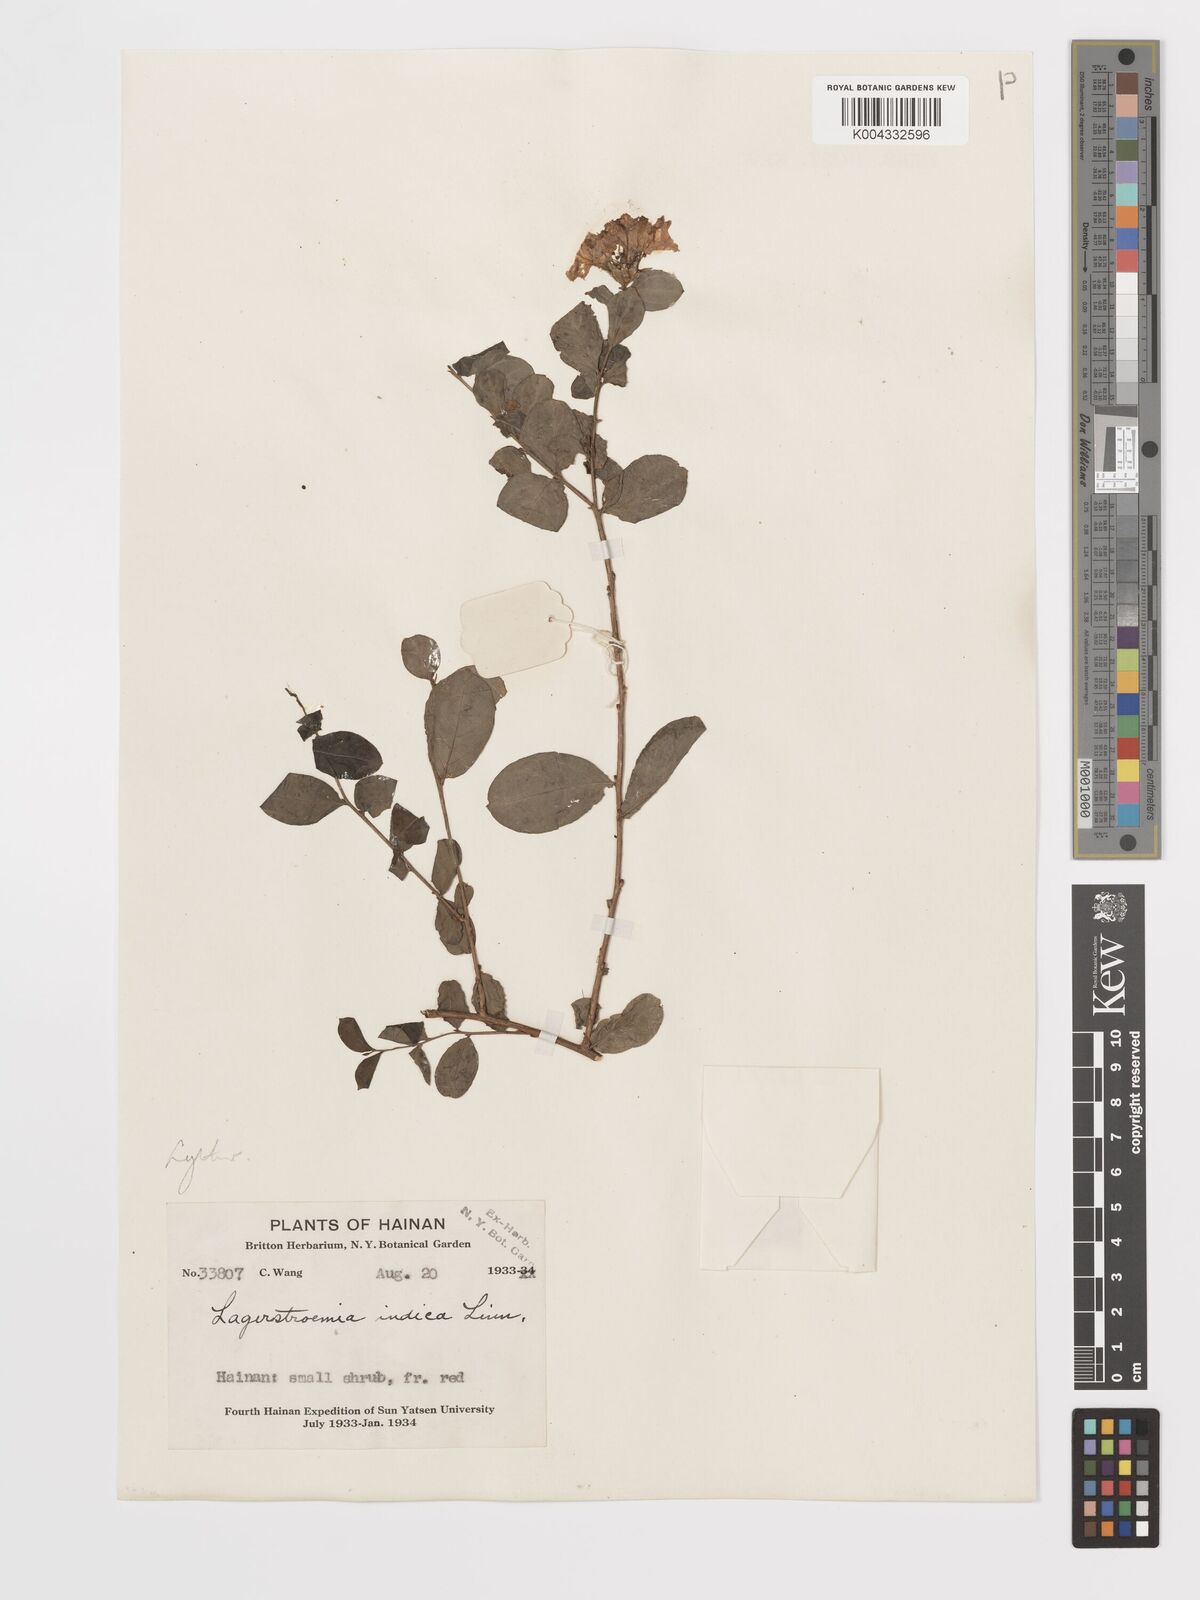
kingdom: Plantae
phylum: Tracheophyta
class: Magnoliopsida
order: Myrtales
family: Lythraceae
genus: Lagerstroemia
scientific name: Lagerstroemia indica
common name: Crape-myrtle
